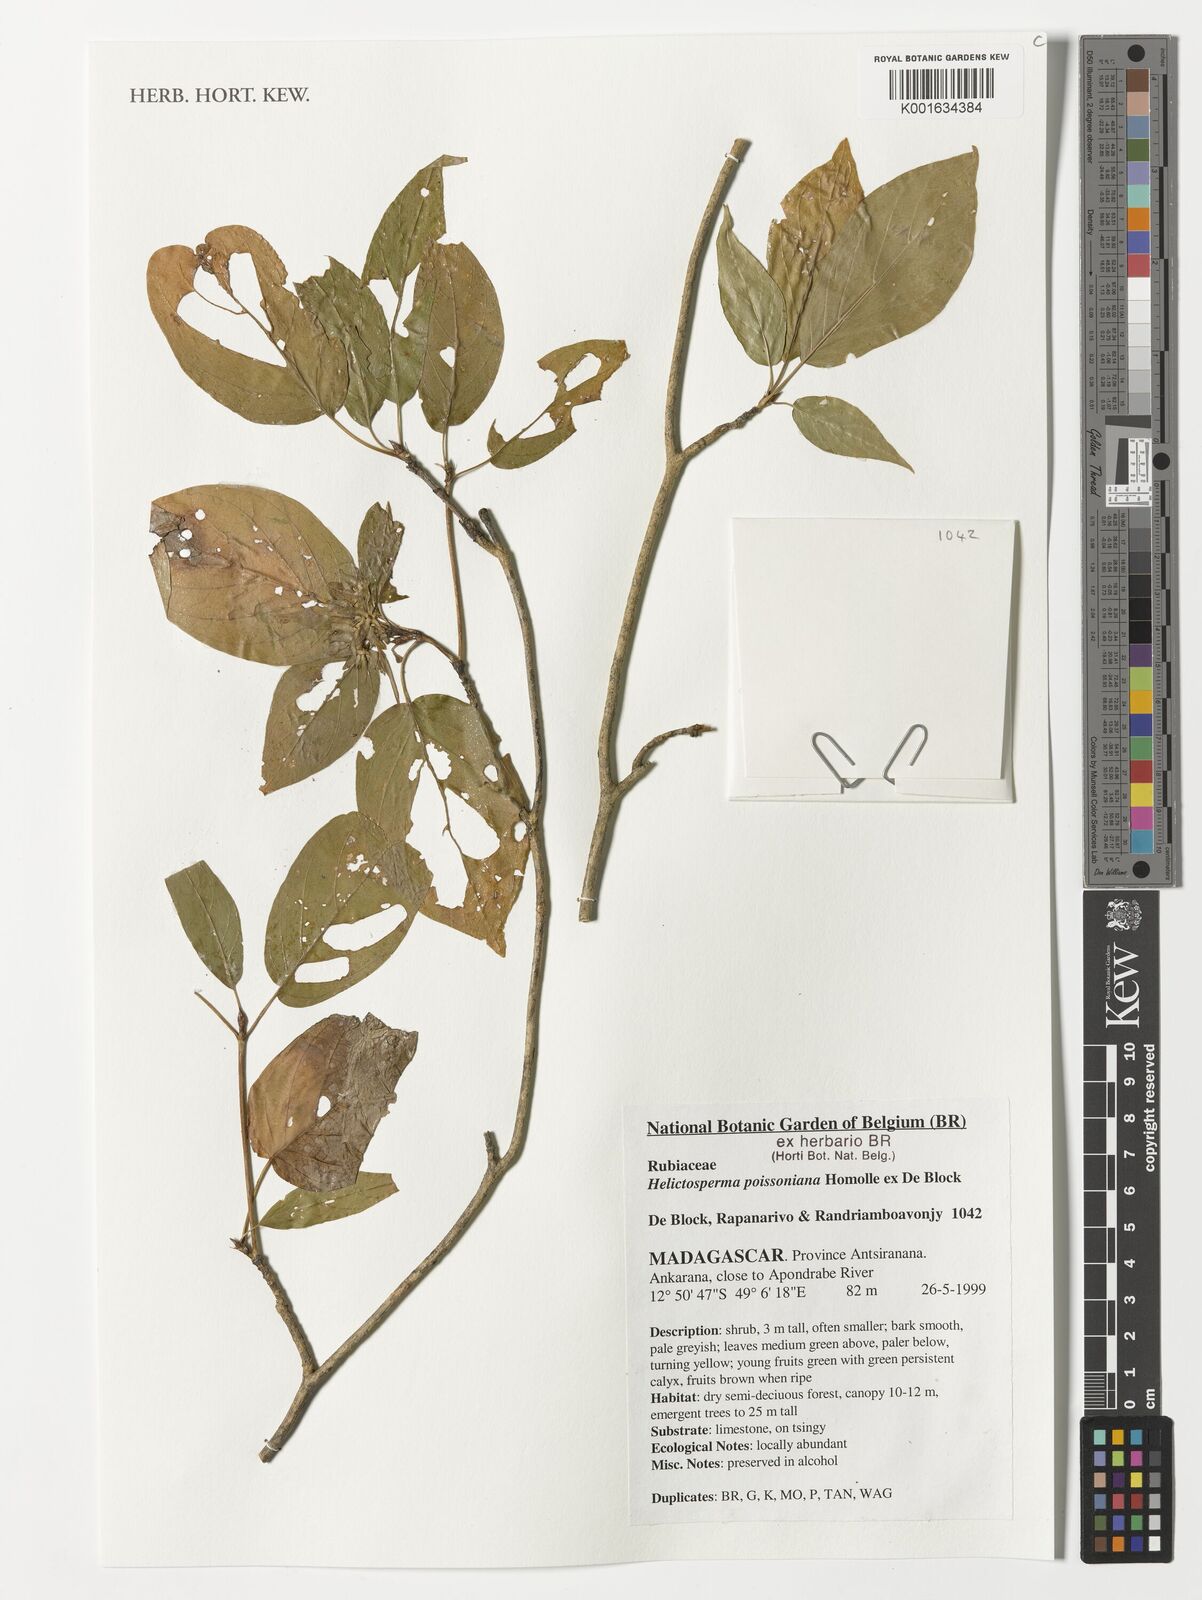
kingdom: Plantae
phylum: Tracheophyta
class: Magnoliopsida
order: Gentianales
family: Rubiaceae
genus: Helictosperma
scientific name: Helictosperma poissonianum
